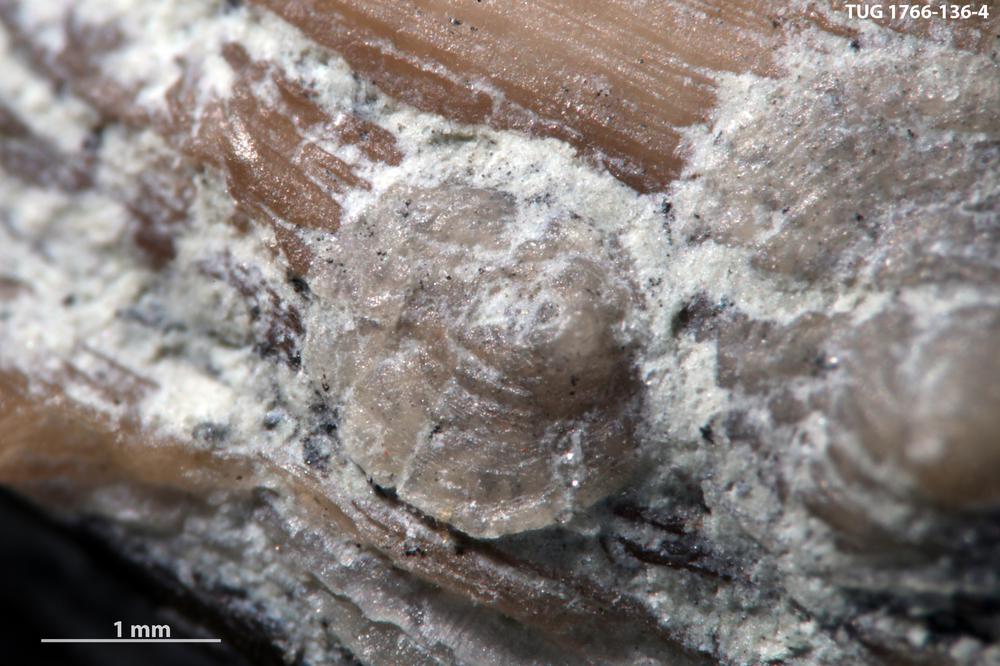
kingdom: Animalia
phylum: Brachiopoda
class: Craniata
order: Craniida
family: Craniidae
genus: Petrocrania
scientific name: Petrocrania
